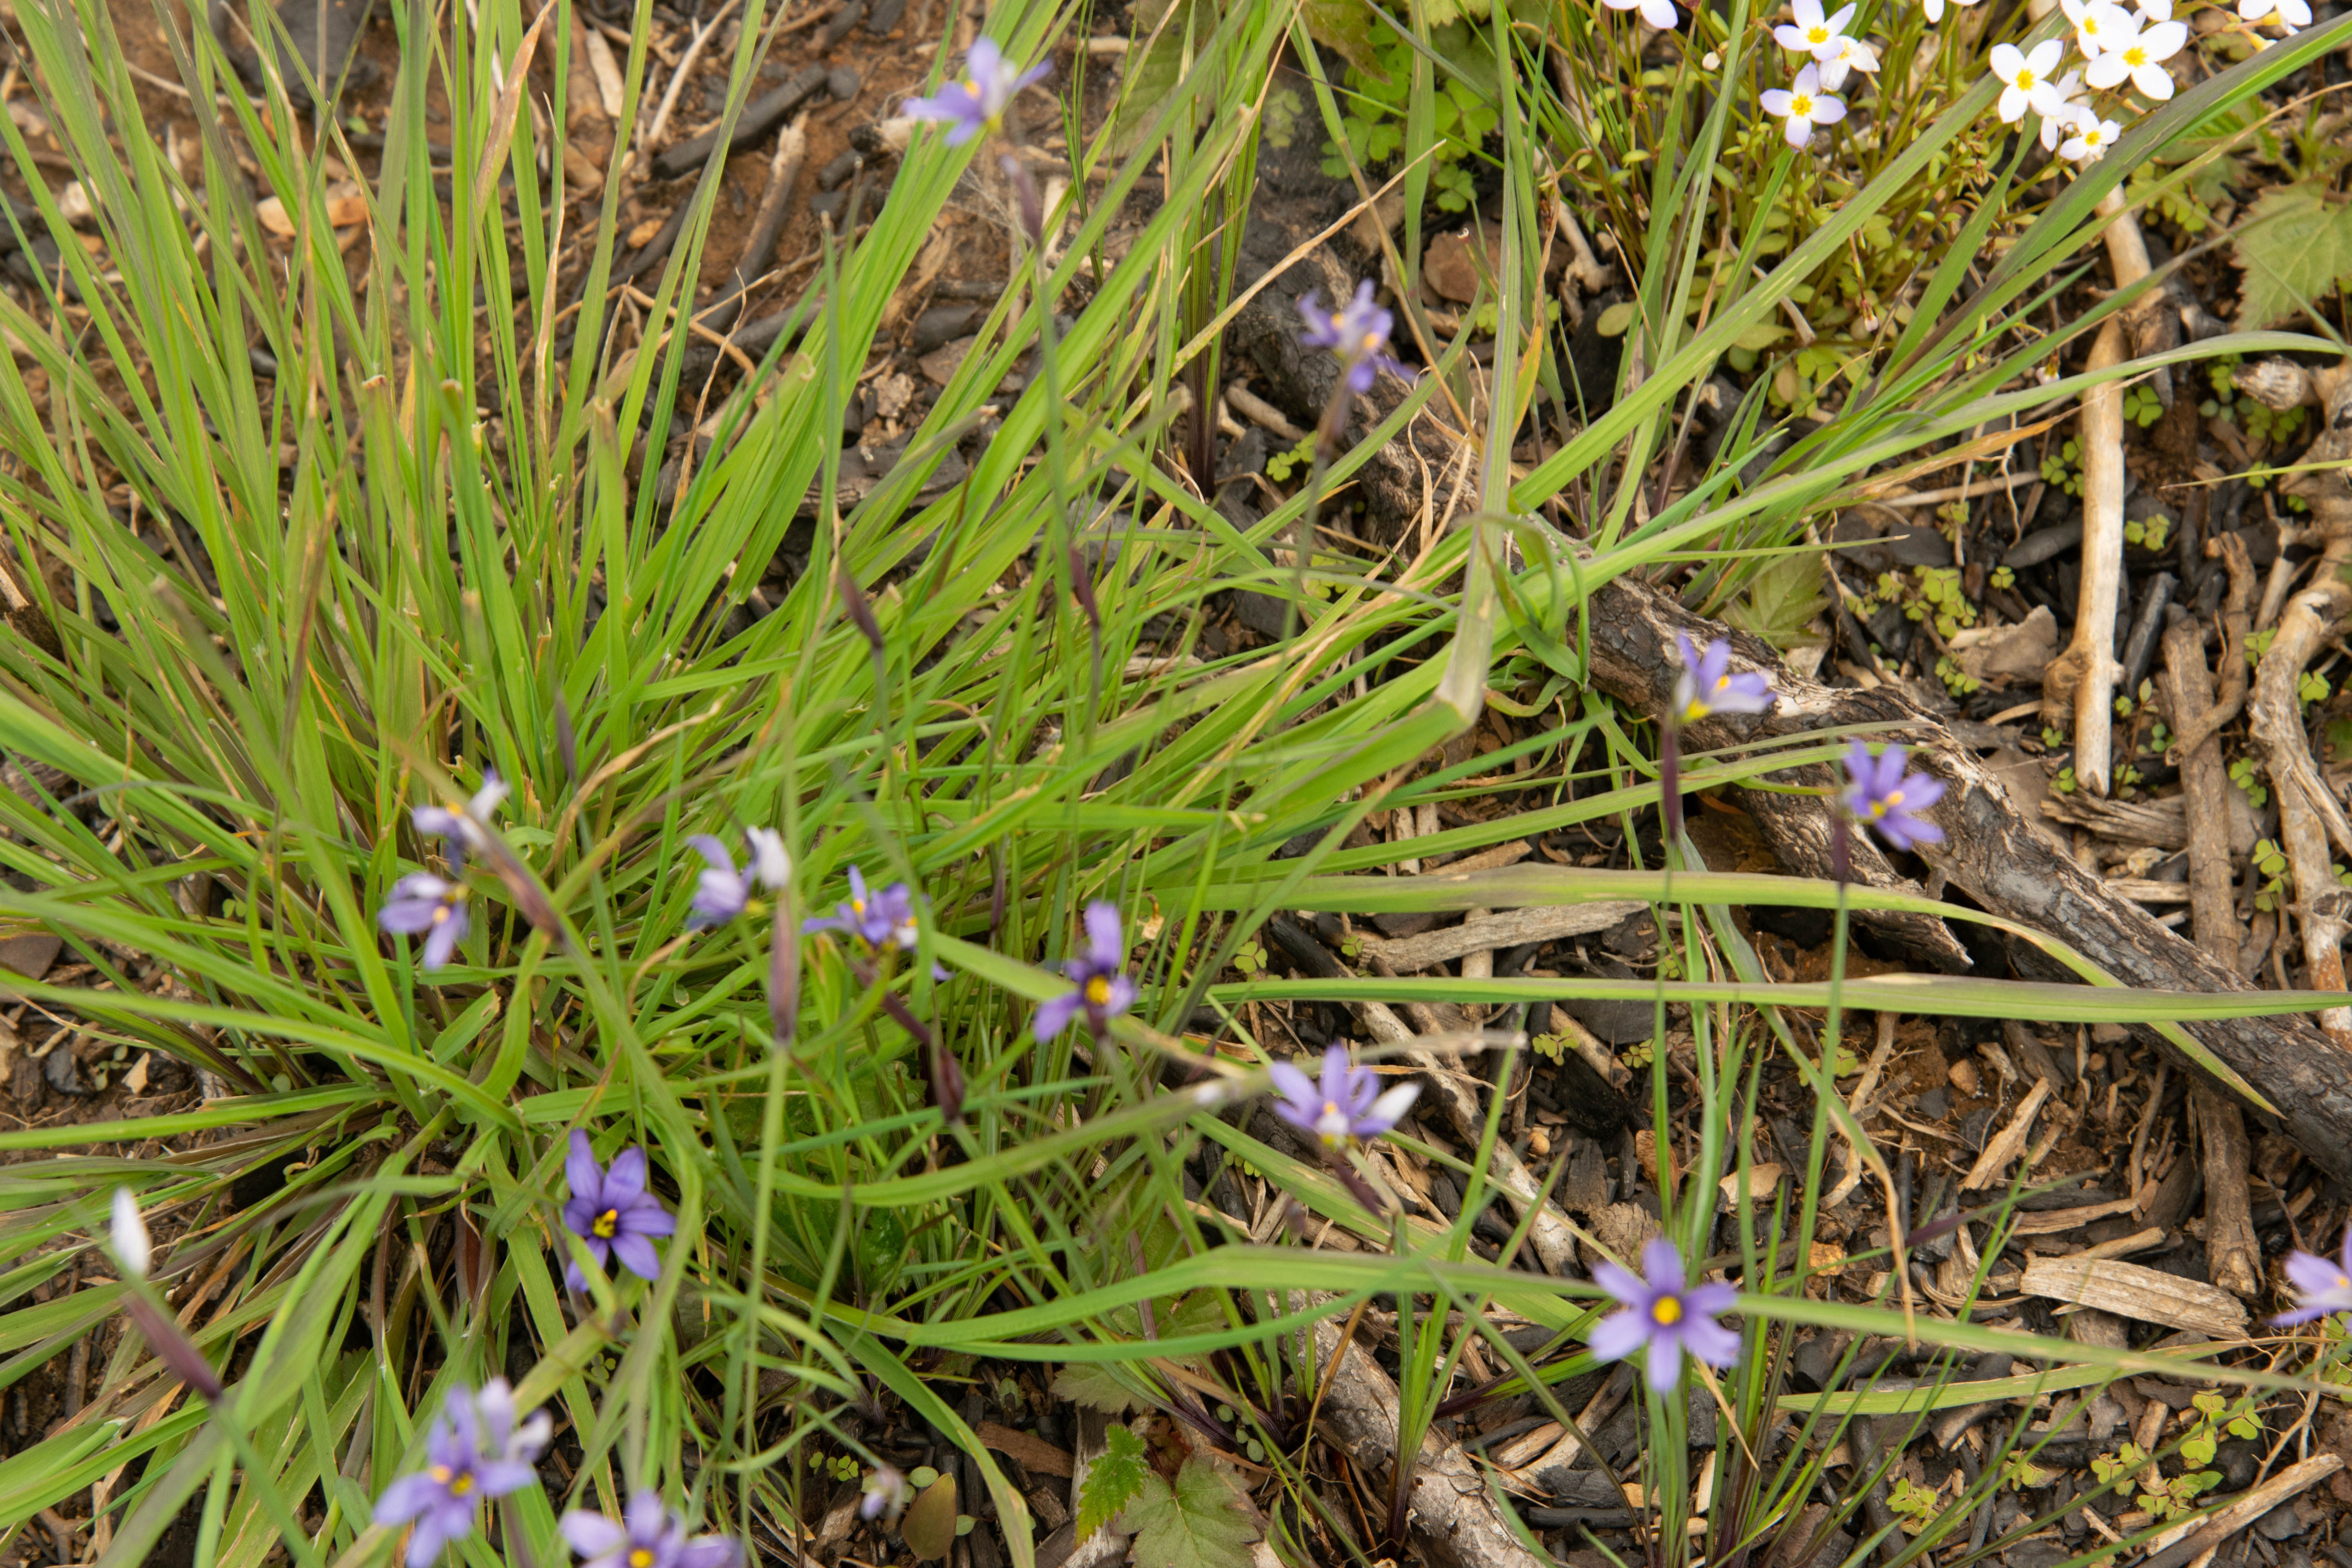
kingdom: Plantae
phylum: Tracheophyta
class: Liliopsida
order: Asparagales
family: Iridaceae
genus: Sisyrinchium
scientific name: Sisyrinchium mucronatum
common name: Eastern blue-eyed-grass
